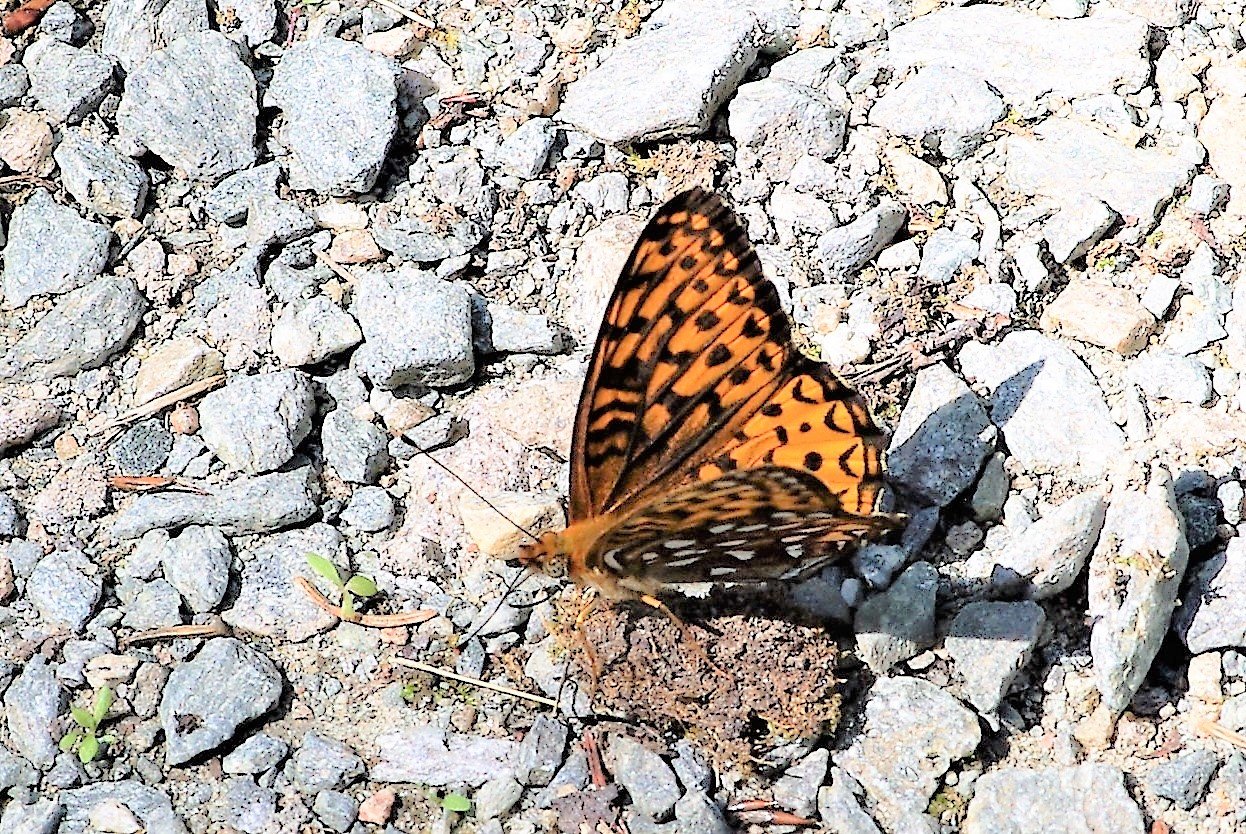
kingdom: Animalia
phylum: Arthropoda
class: Insecta
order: Lepidoptera
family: Nymphalidae
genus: Speyeria
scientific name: Speyeria atlantis
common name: Atlantis Fritillary
